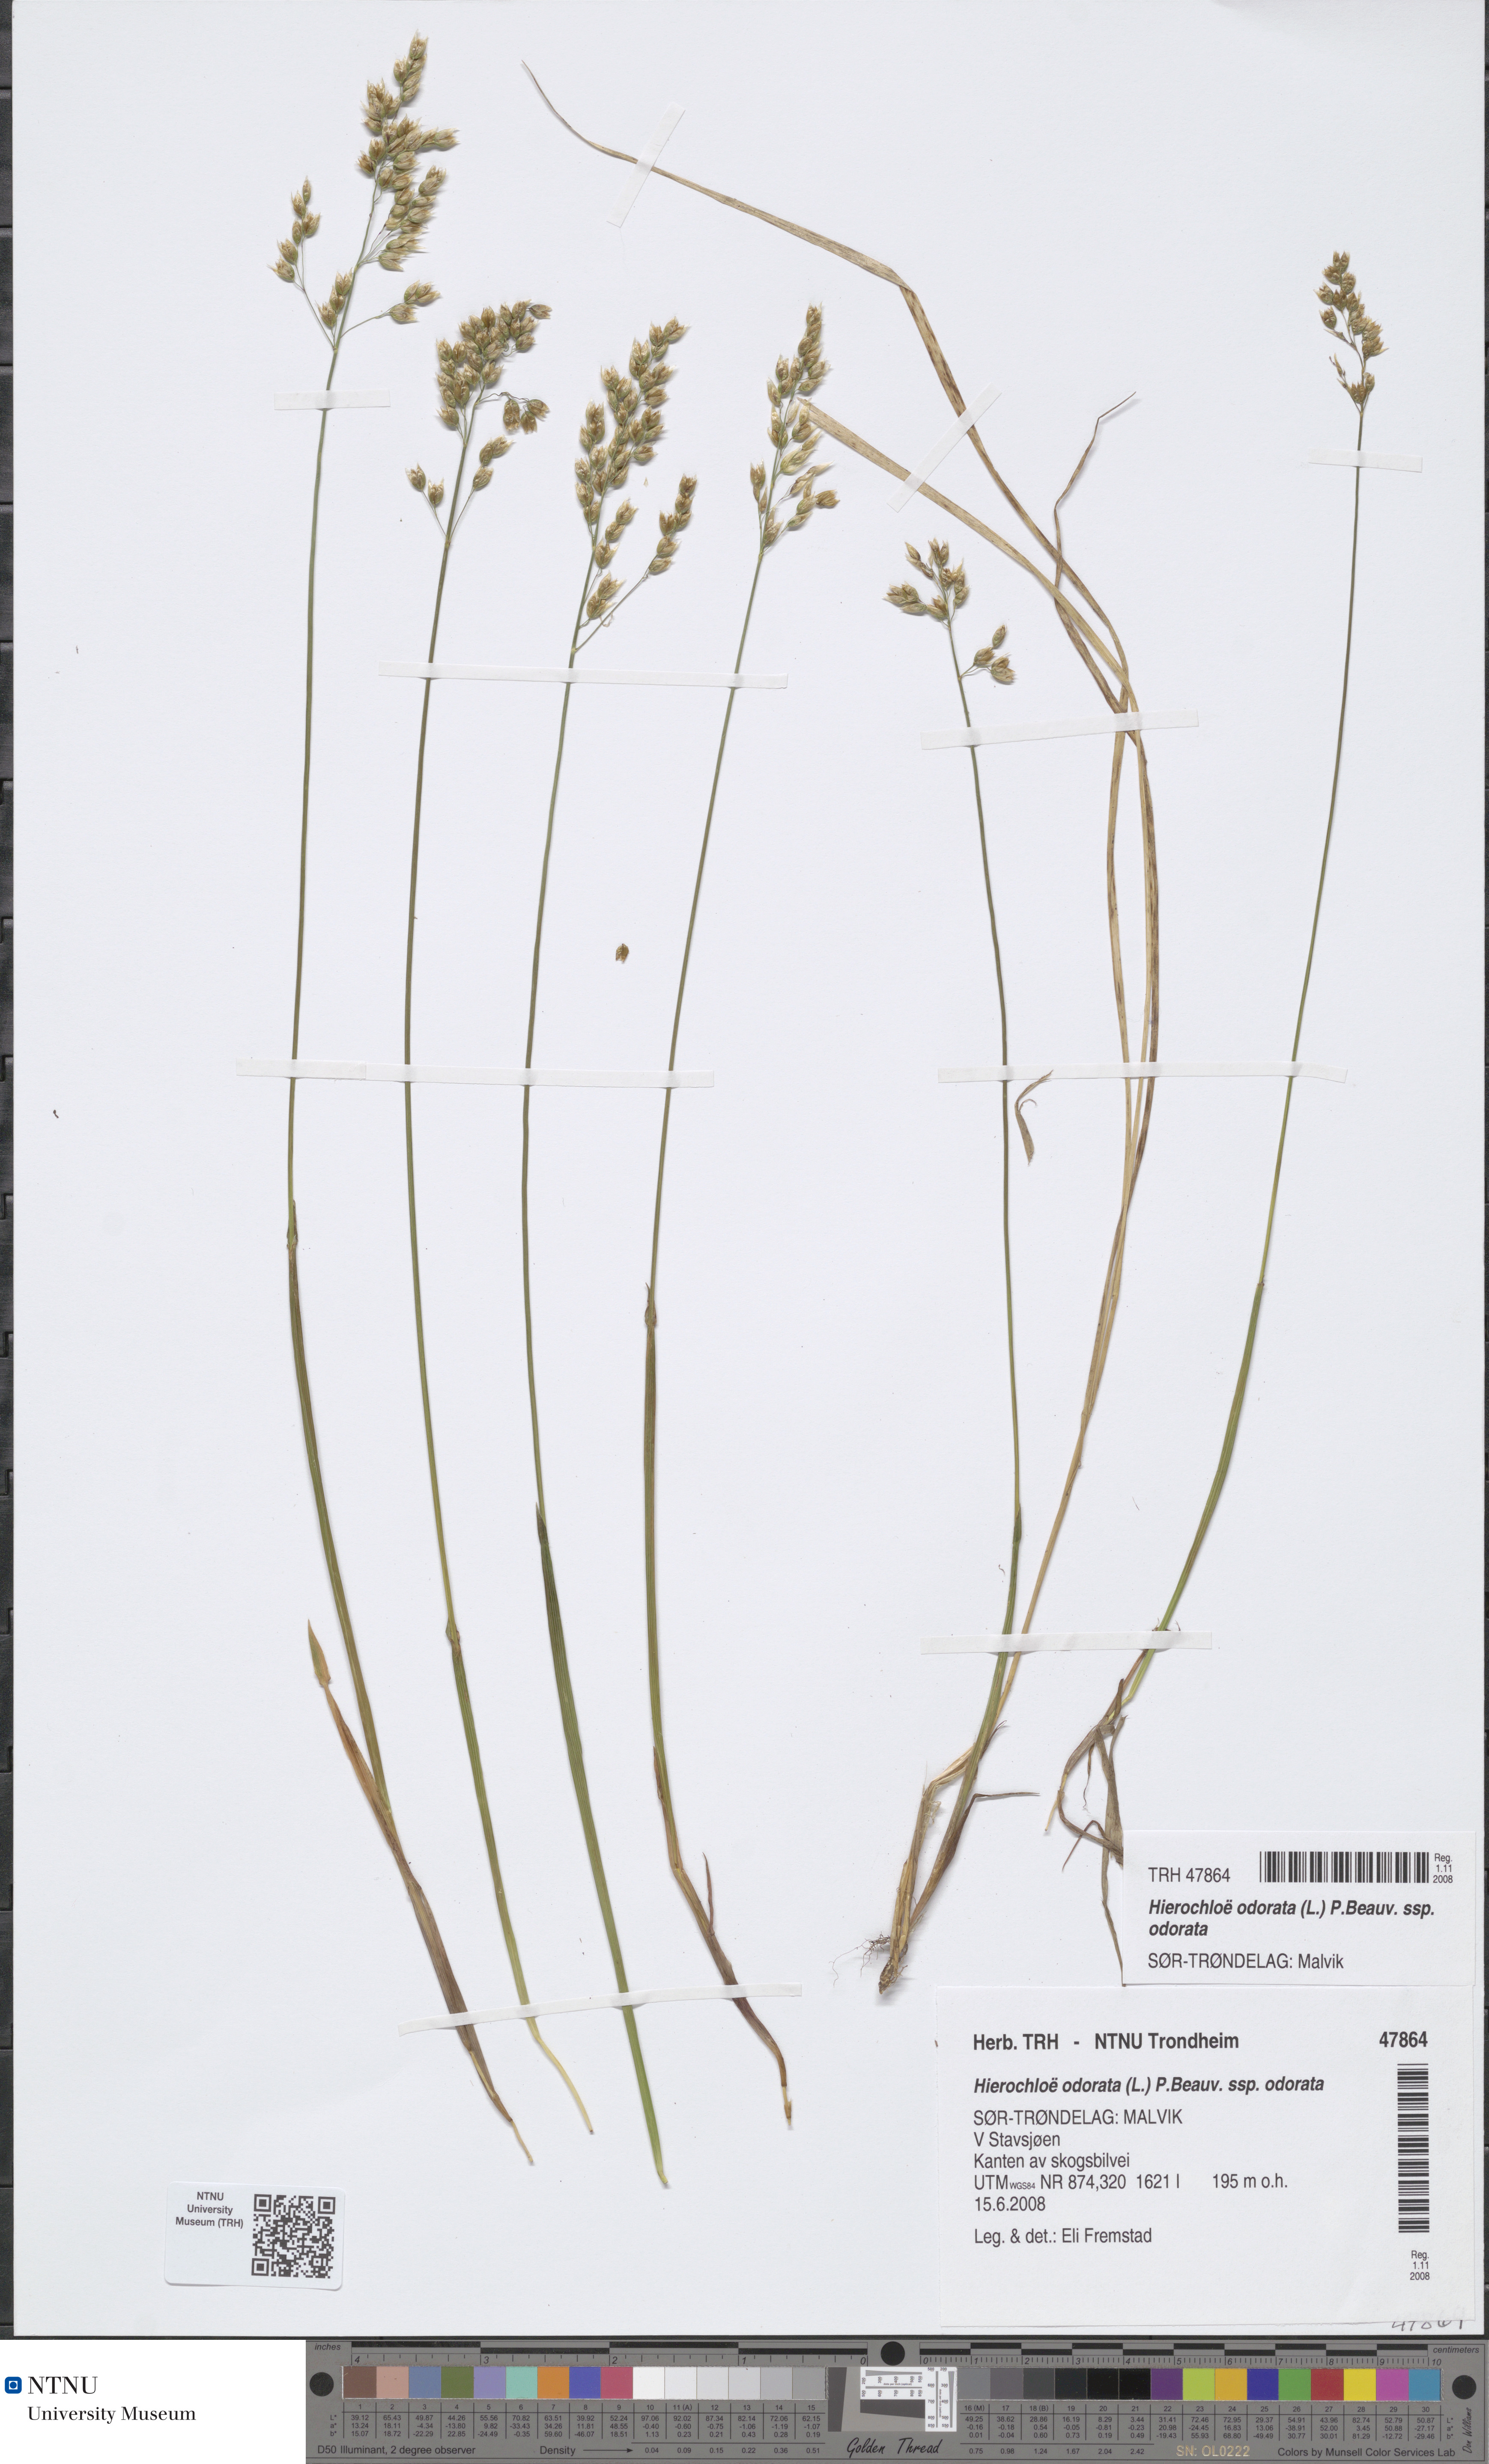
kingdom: Plantae
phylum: Tracheophyta
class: Liliopsida
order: Poales
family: Poaceae
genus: Anthoxanthum
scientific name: Anthoxanthum nitens
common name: Holy grass
